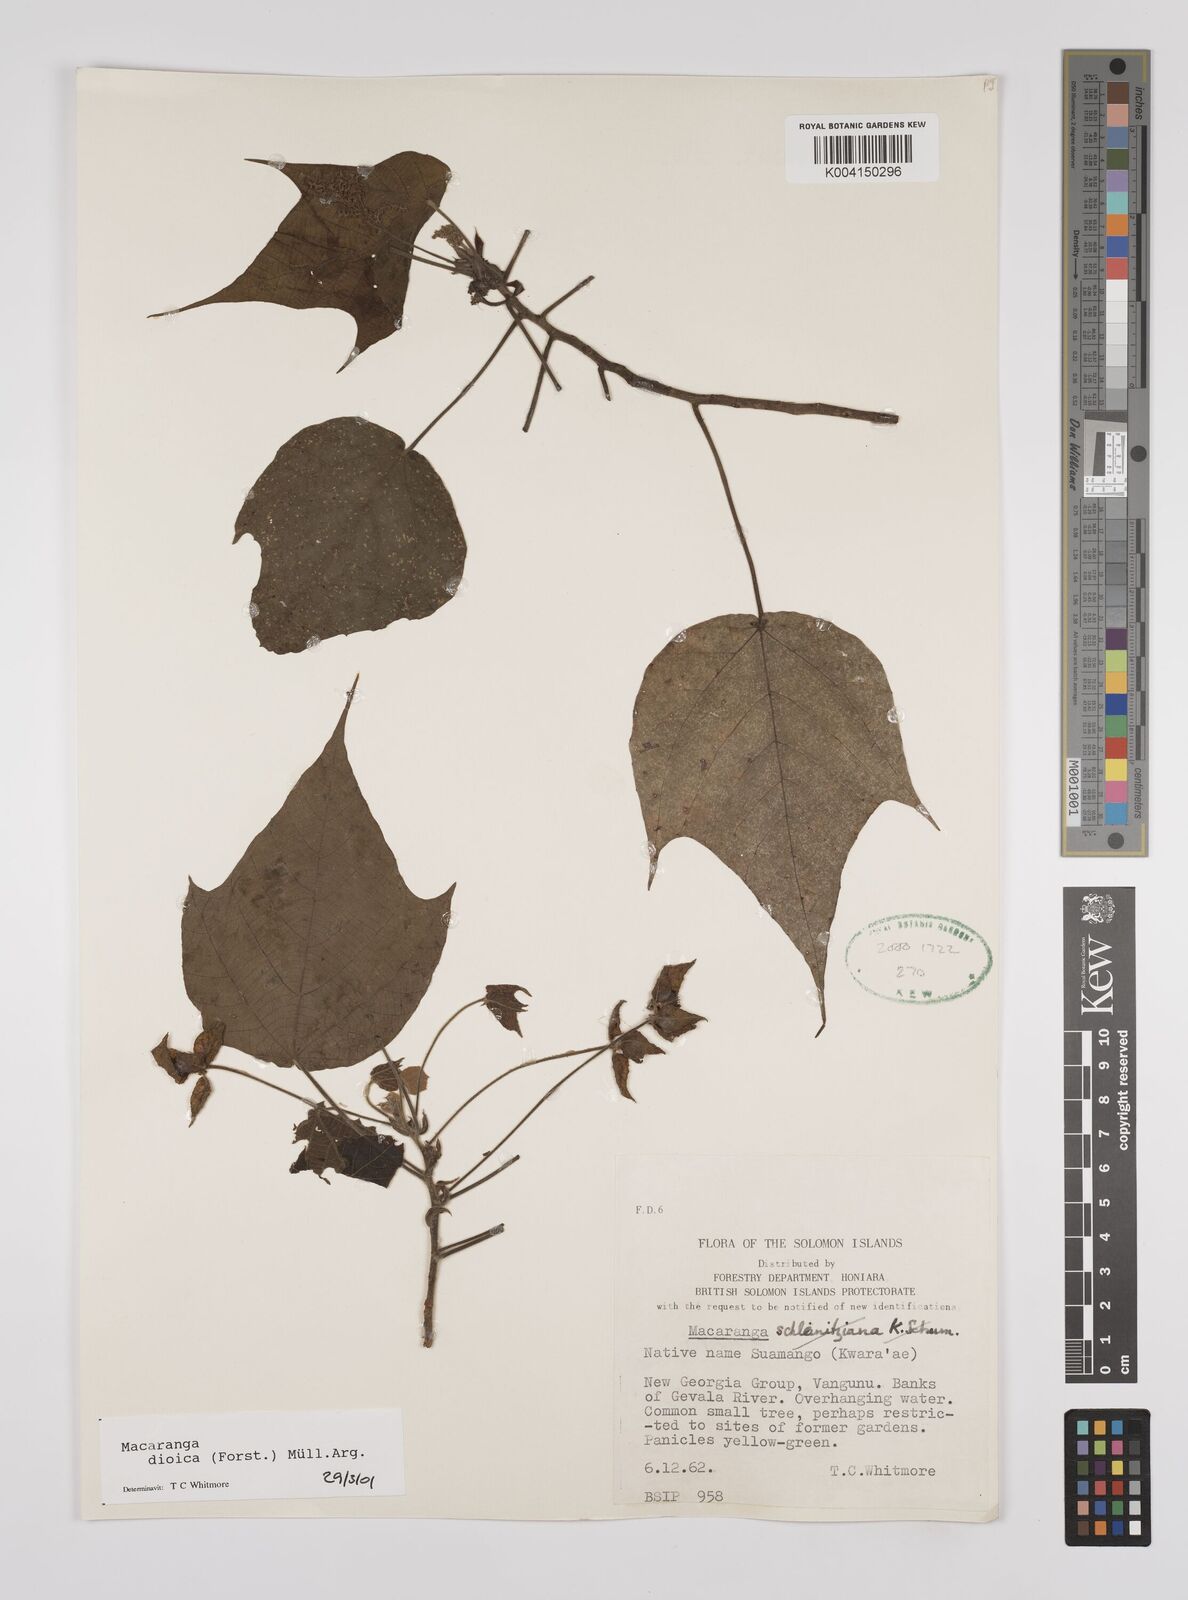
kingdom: Plantae
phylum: Tracheophyta
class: Magnoliopsida
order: Malpighiales
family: Euphorbiaceae
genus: Macaranga
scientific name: Macaranga dioica
